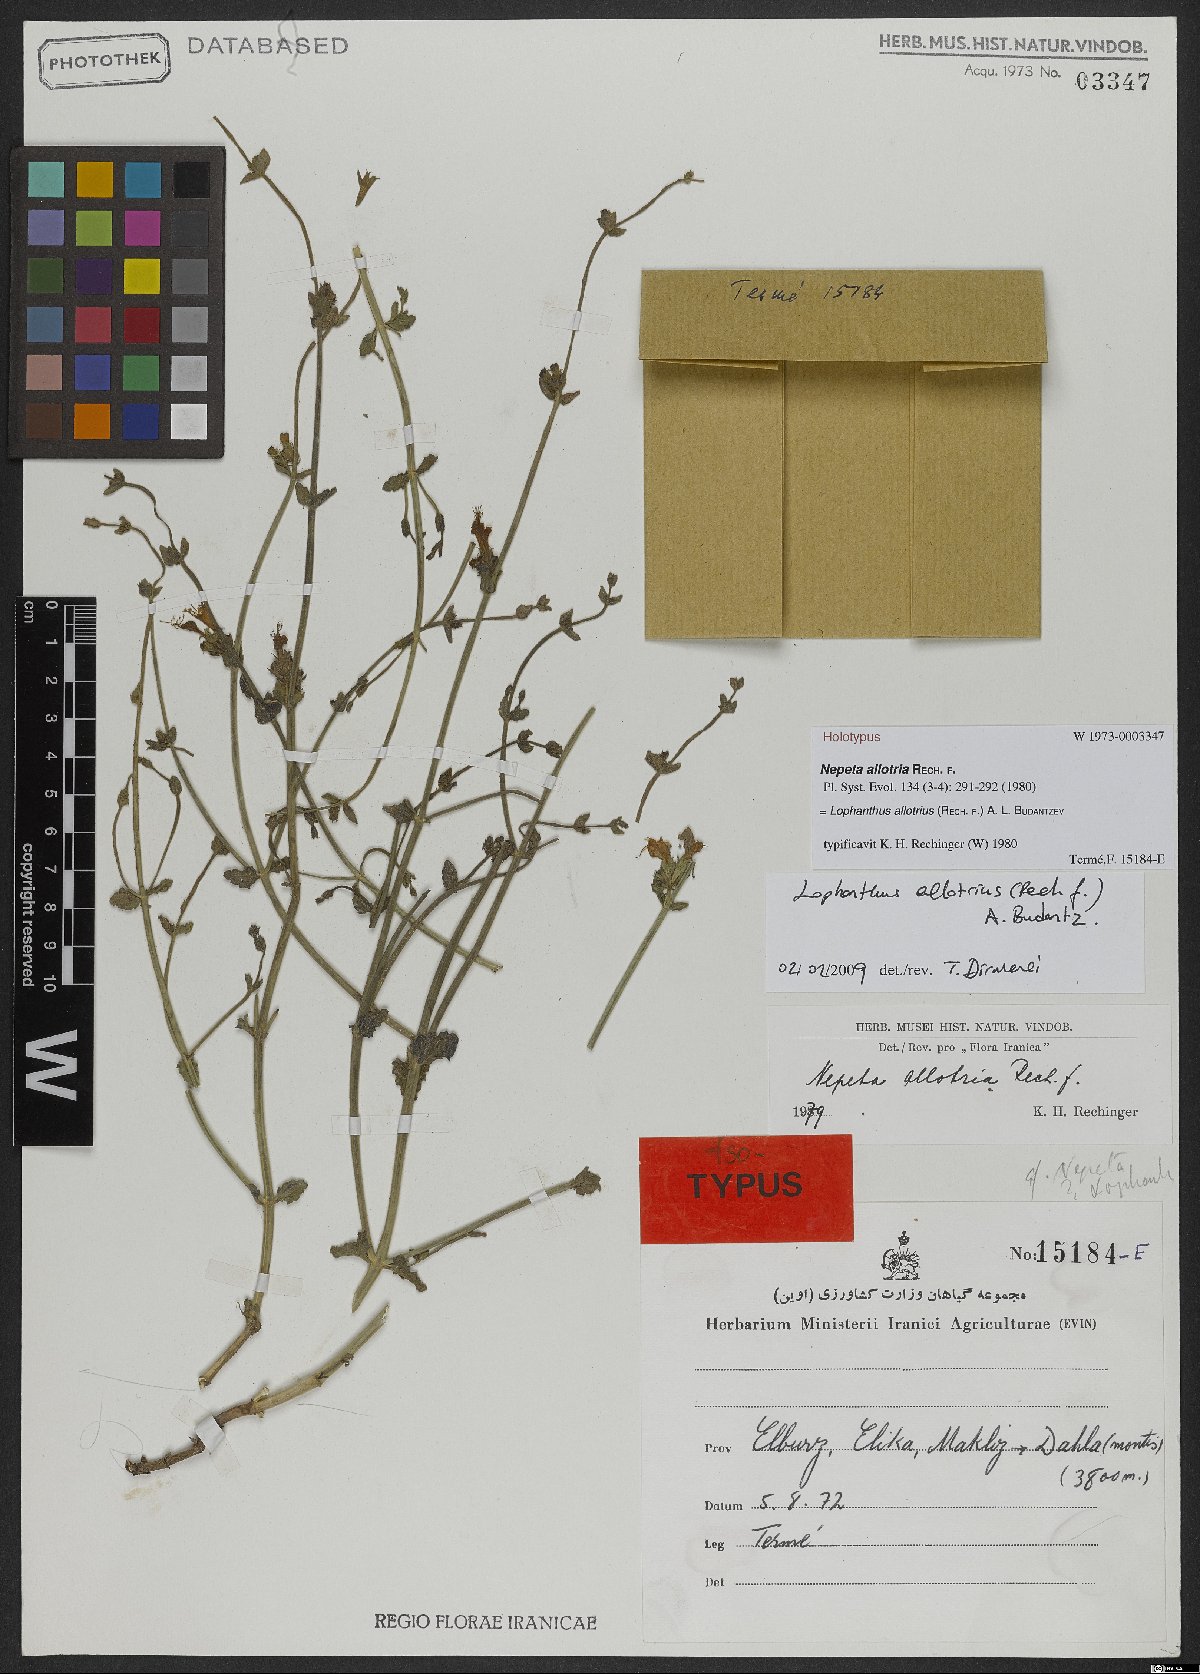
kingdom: Plantae
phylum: Tracheophyta
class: Magnoliopsida
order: Lamiales
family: Lamiaceae
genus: Nepeta
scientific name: Nepeta allotria
